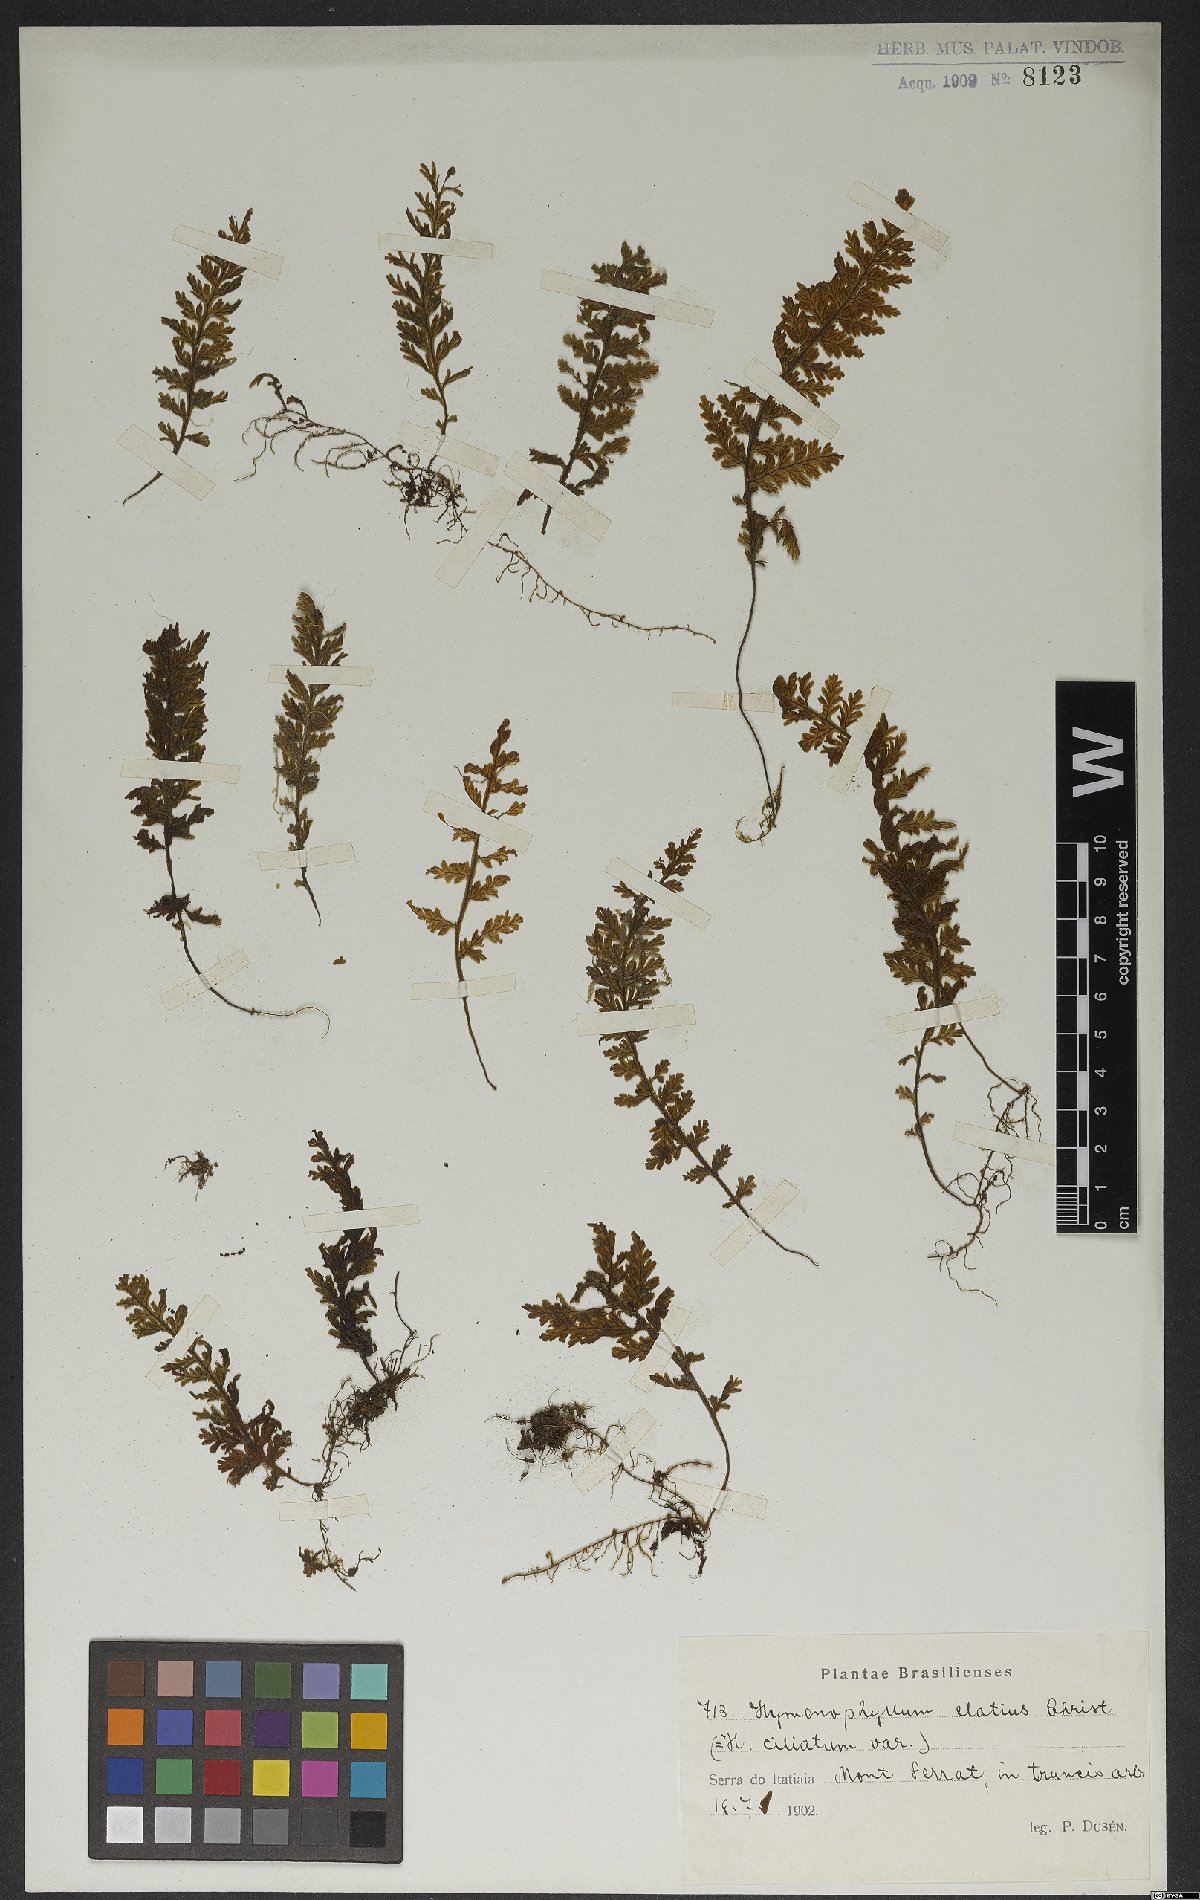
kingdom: Plantae
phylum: Tracheophyta
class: Polypodiopsida
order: Hymenophyllales
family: Hymenophyllaceae
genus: Hymenophyllum
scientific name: Hymenophyllum hirsutum
